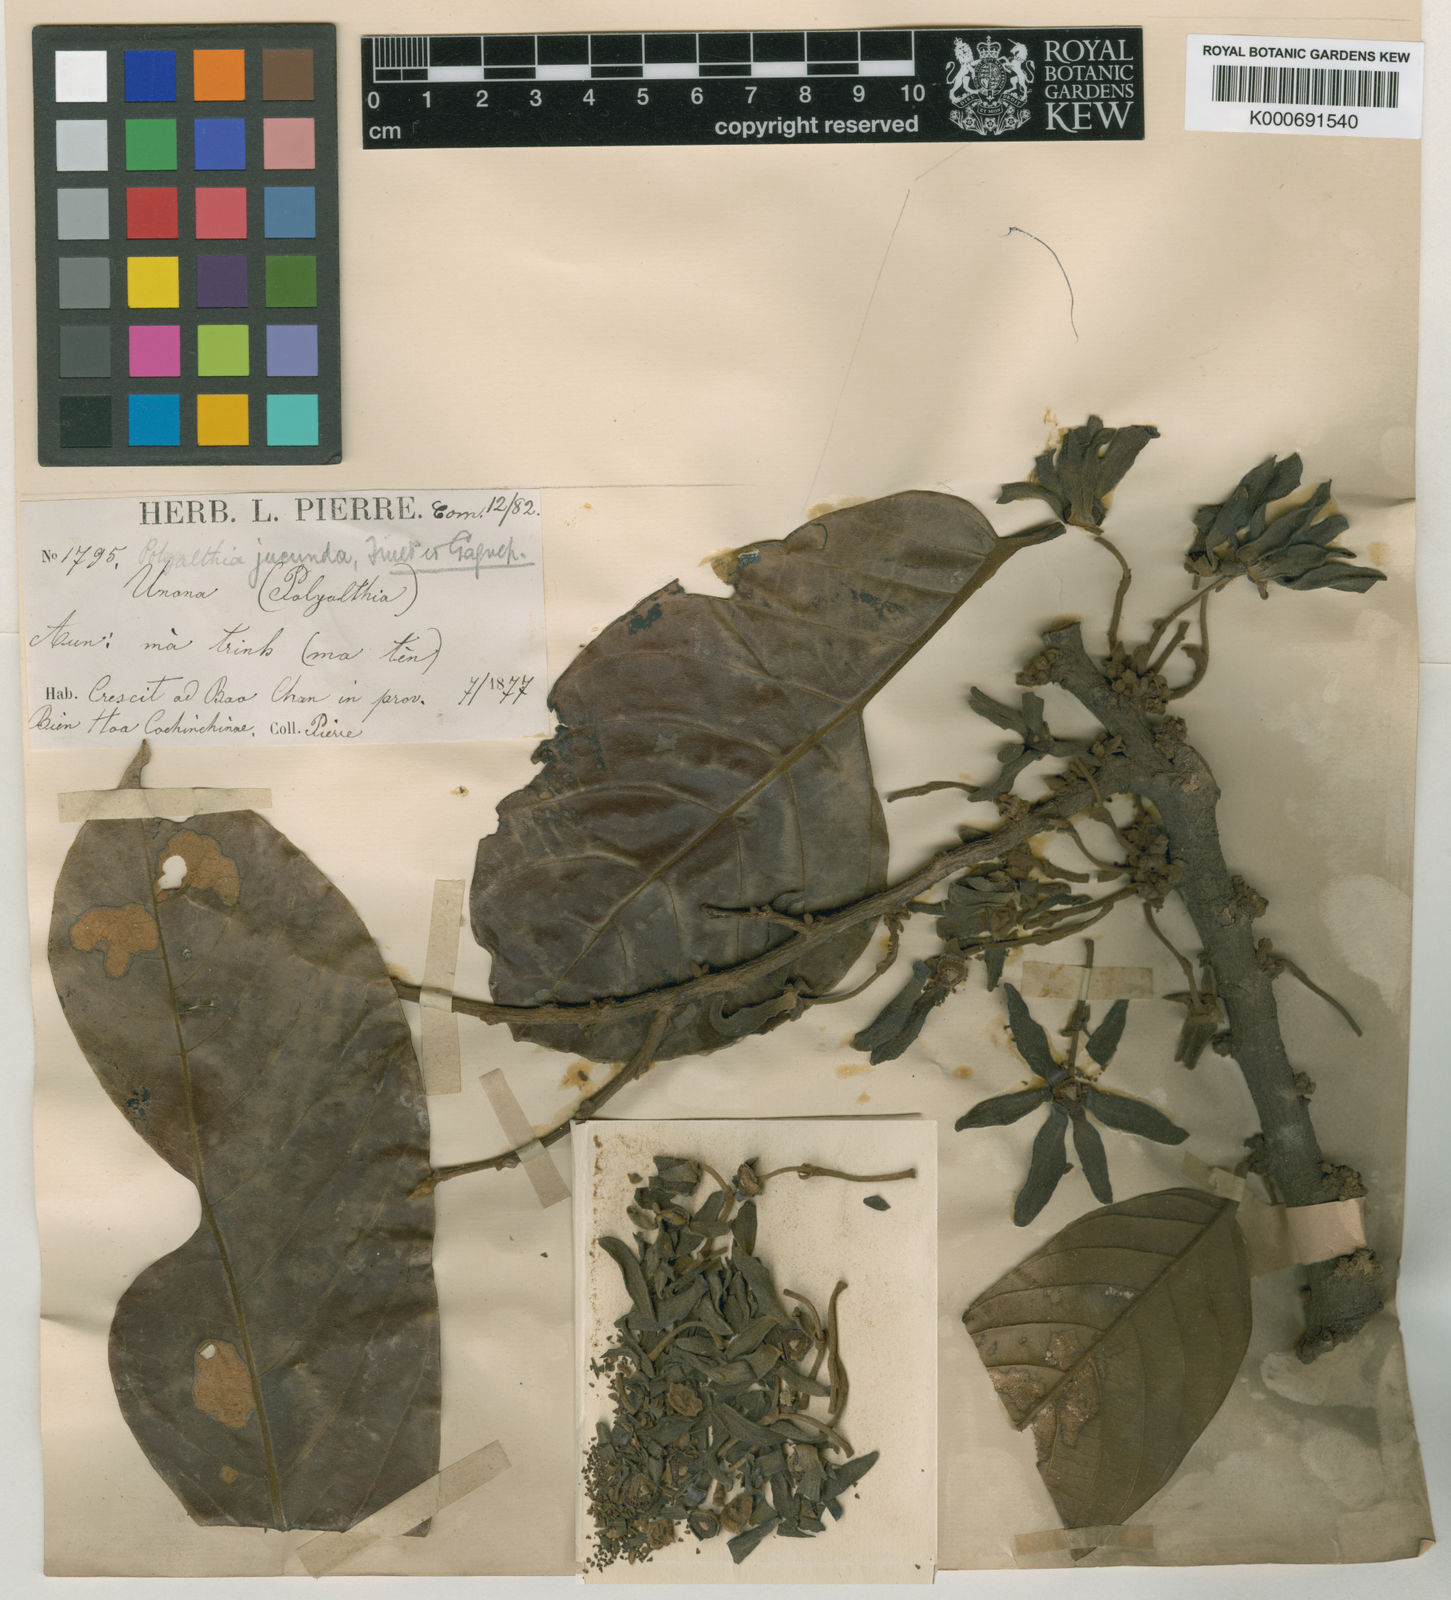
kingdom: Plantae
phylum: Tracheophyta
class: Magnoliopsida
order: Magnoliales
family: Annonaceae
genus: Polyalthia
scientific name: Polyalthia laui
